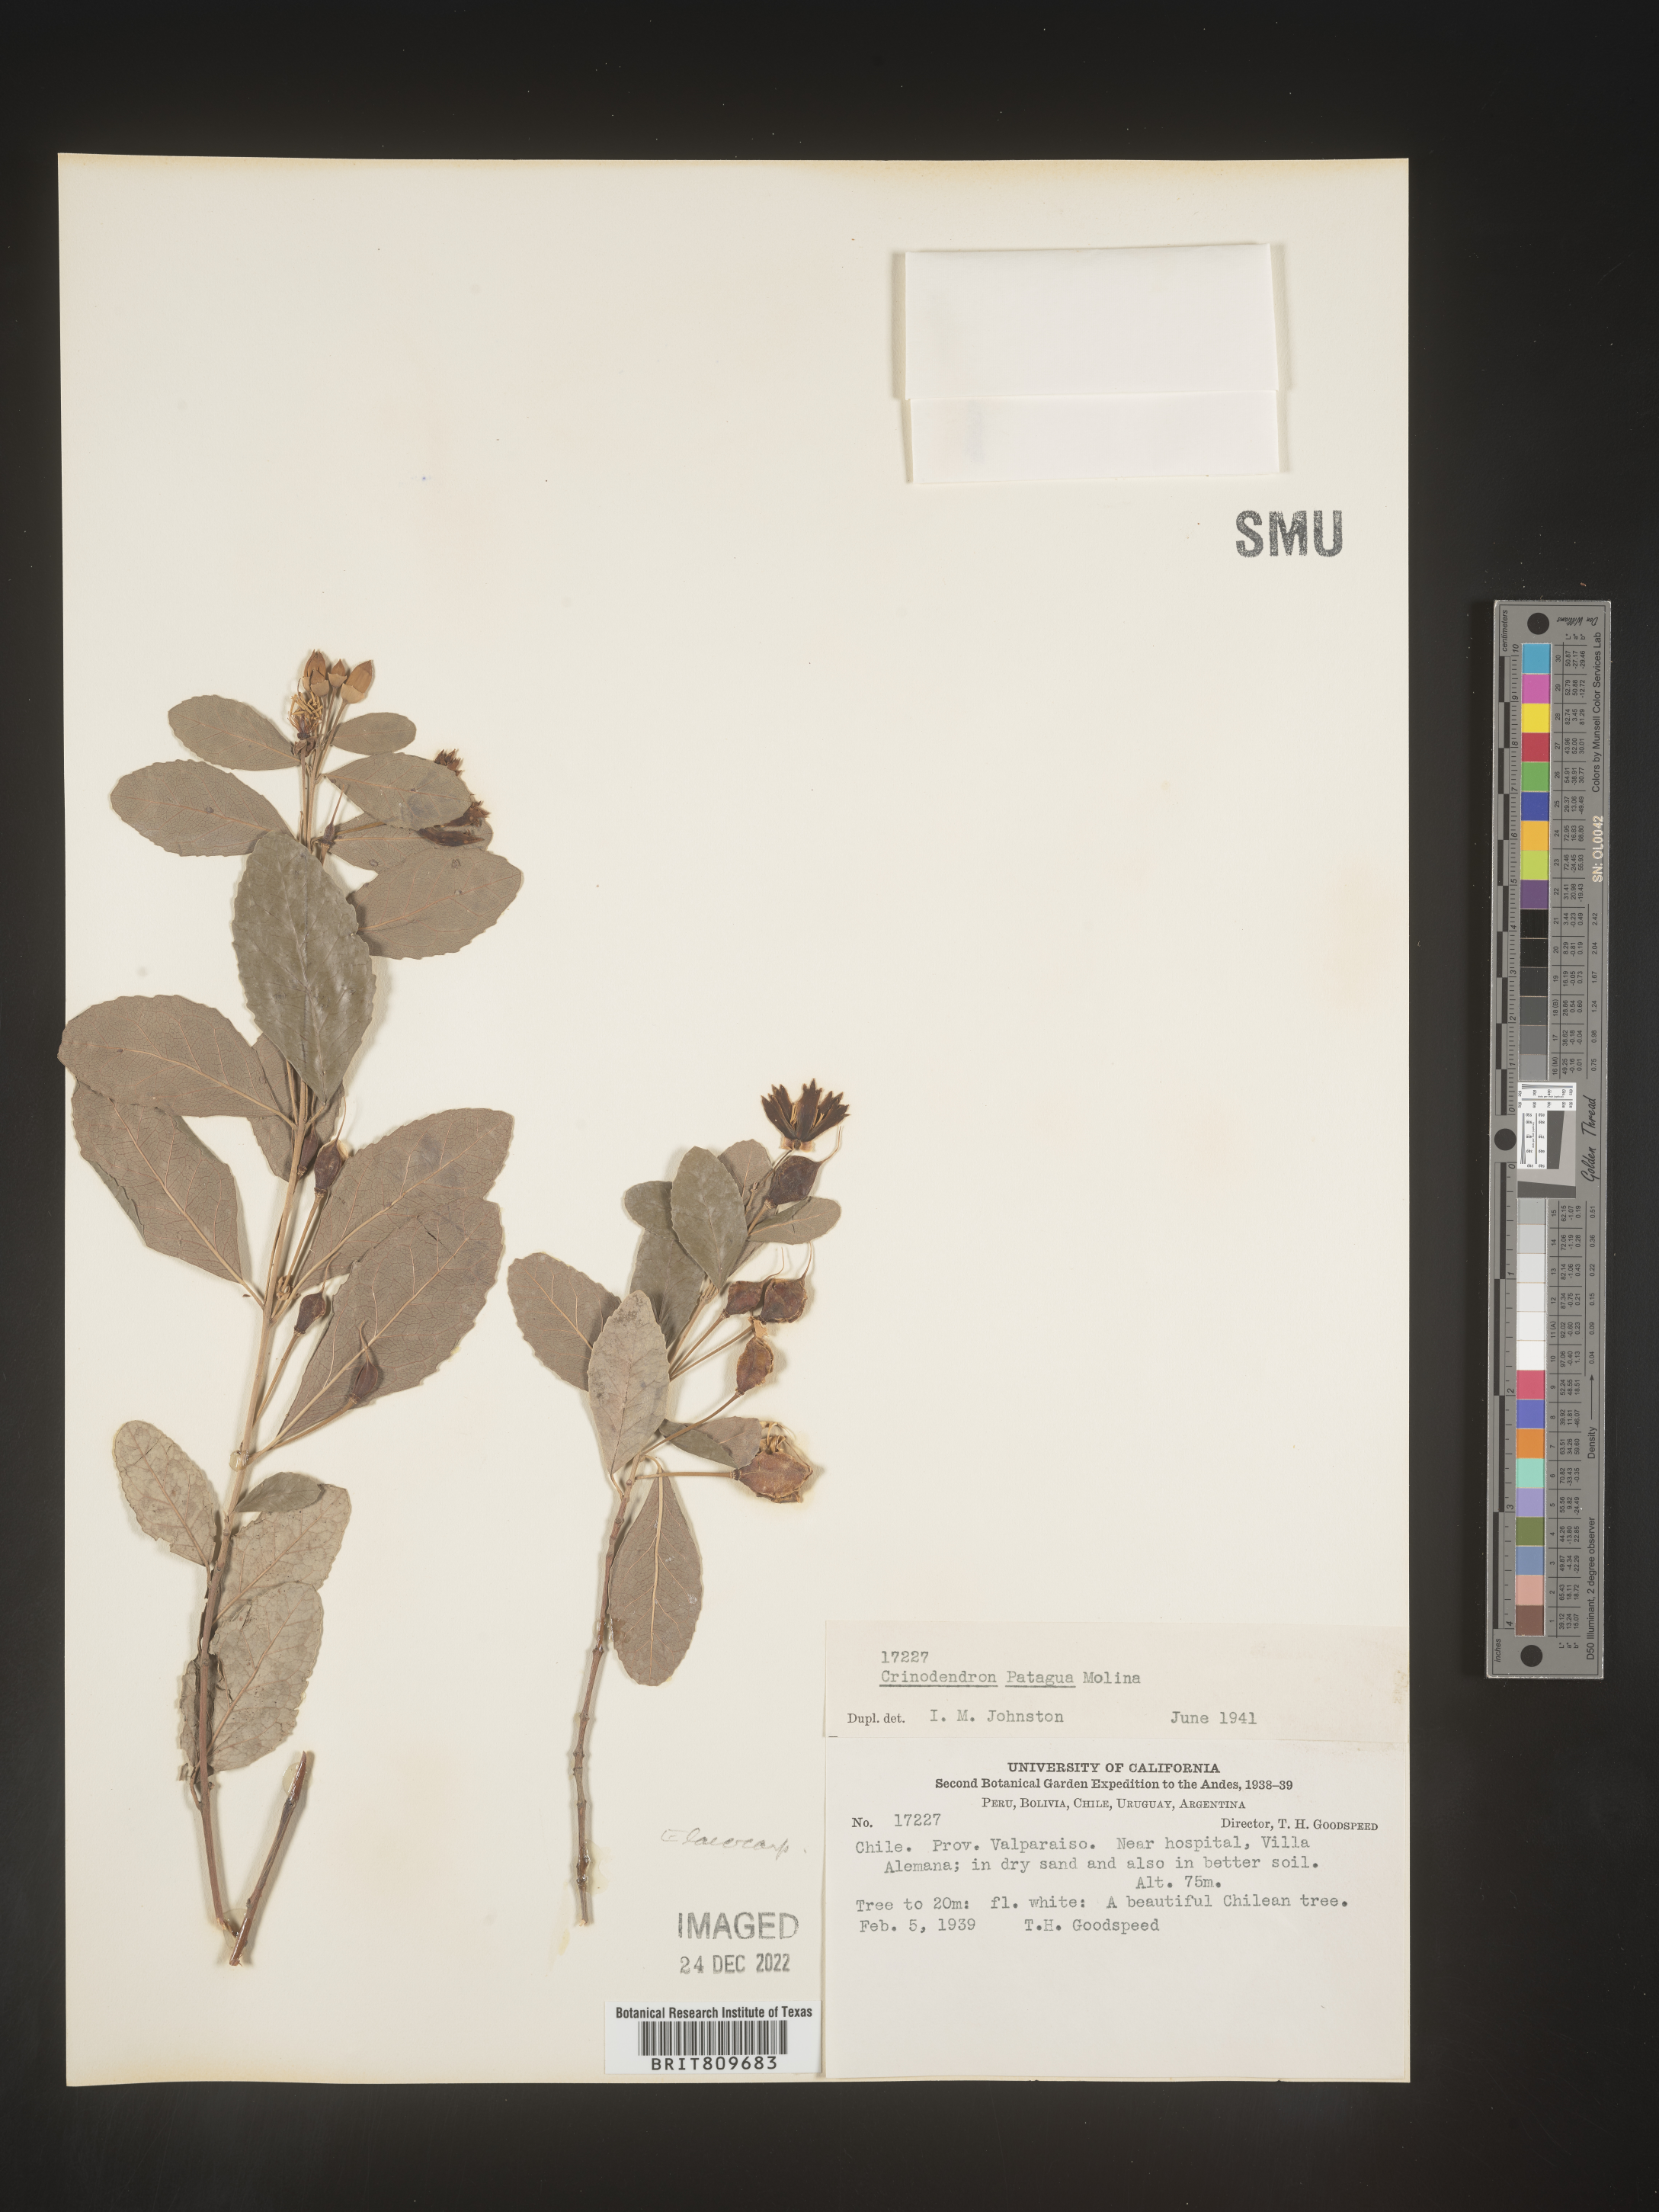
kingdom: Plantae
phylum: Tracheophyta
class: Magnoliopsida
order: Oxalidales
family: Elaeocarpaceae
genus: Crinodendron
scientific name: Crinodendron
